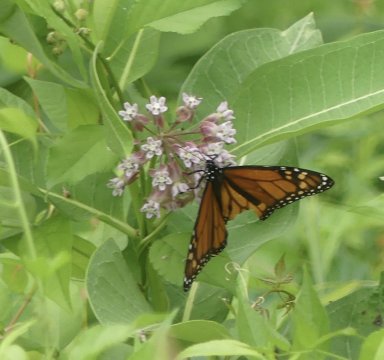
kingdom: Animalia
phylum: Arthropoda
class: Insecta
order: Lepidoptera
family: Nymphalidae
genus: Danaus
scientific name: Danaus plexippus
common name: Monarch
